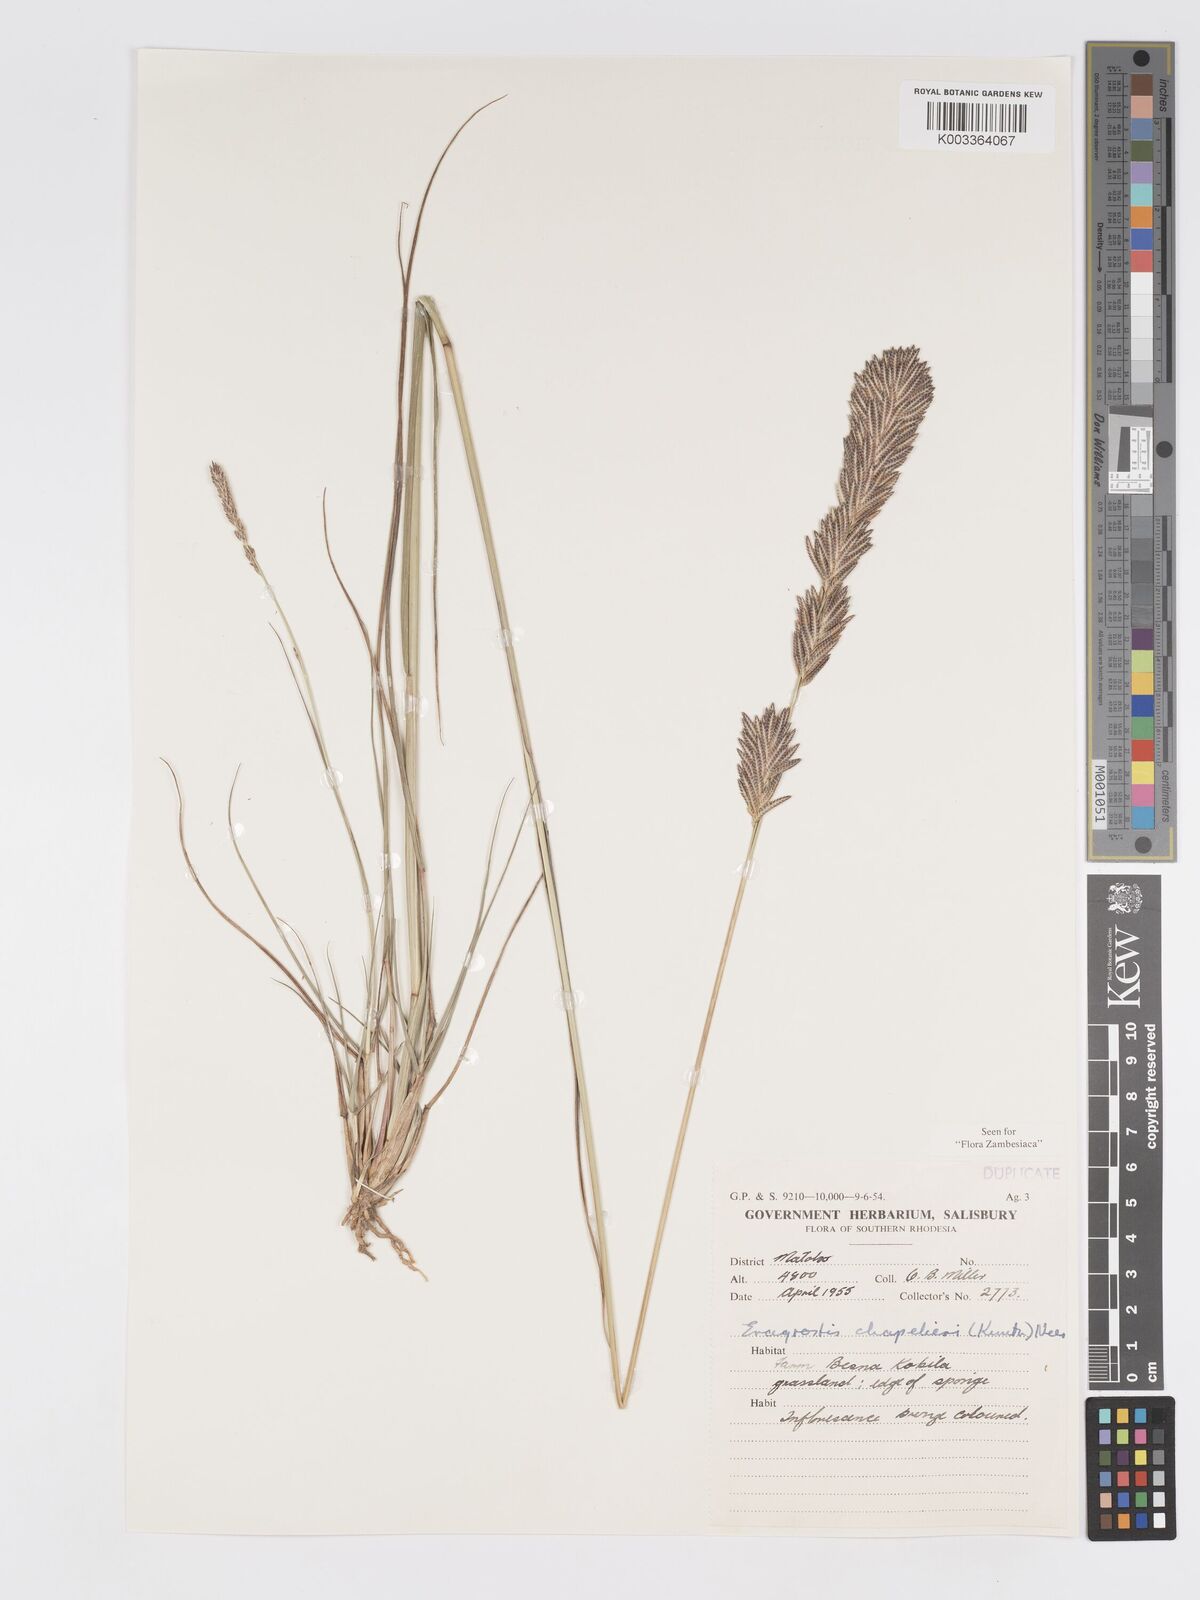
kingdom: Plantae
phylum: Tracheophyta
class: Liliopsida
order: Poales
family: Poaceae
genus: Eragrostis
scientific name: Eragrostis chapelieri
